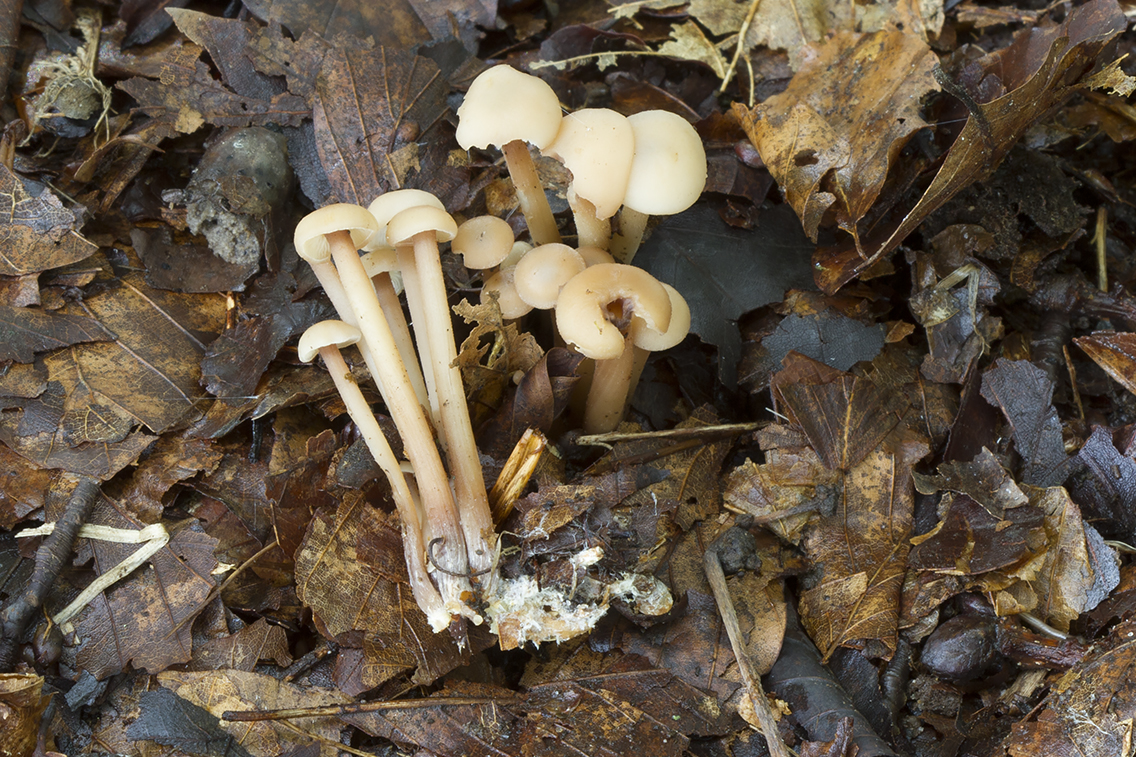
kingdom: Fungi
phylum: Basidiomycota
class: Agaricomycetes
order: Agaricales
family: Omphalotaceae
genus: Collybiopsis
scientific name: Collybiopsis confluens
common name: knippe-fladhat
